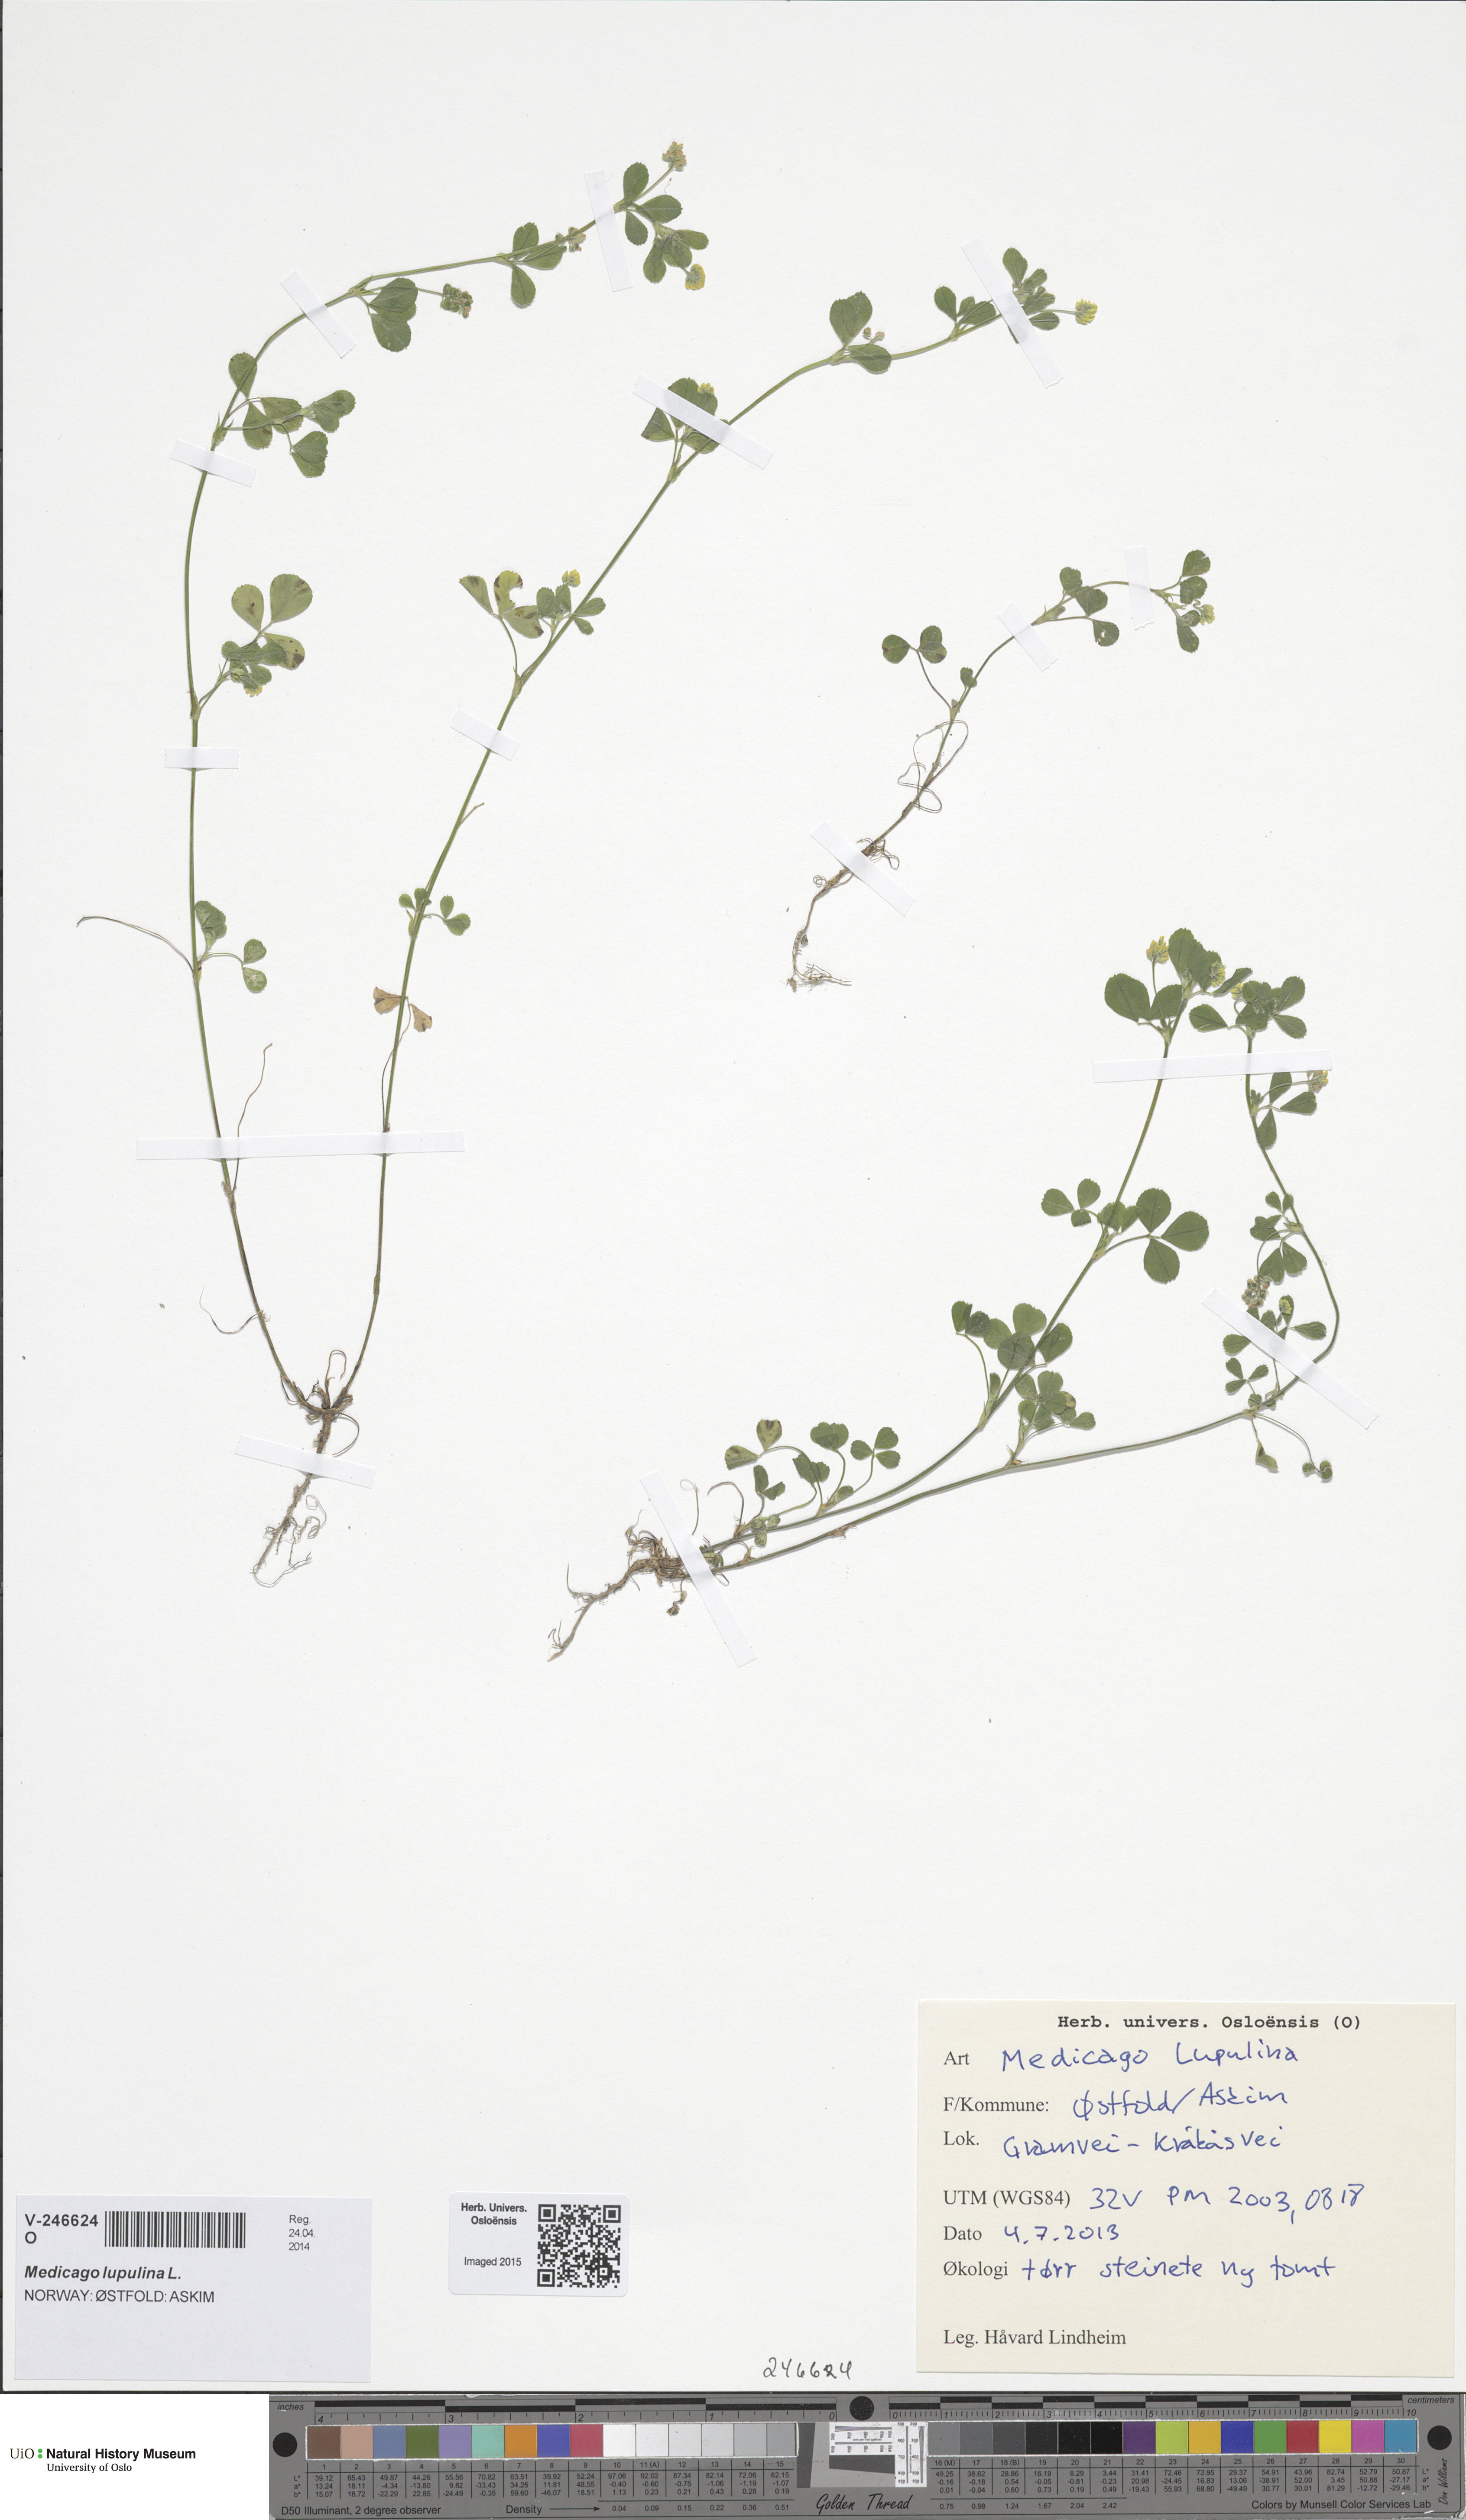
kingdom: Plantae
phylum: Tracheophyta
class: Magnoliopsida
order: Fabales
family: Fabaceae
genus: Medicago
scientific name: Medicago lupulina
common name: Black medick
